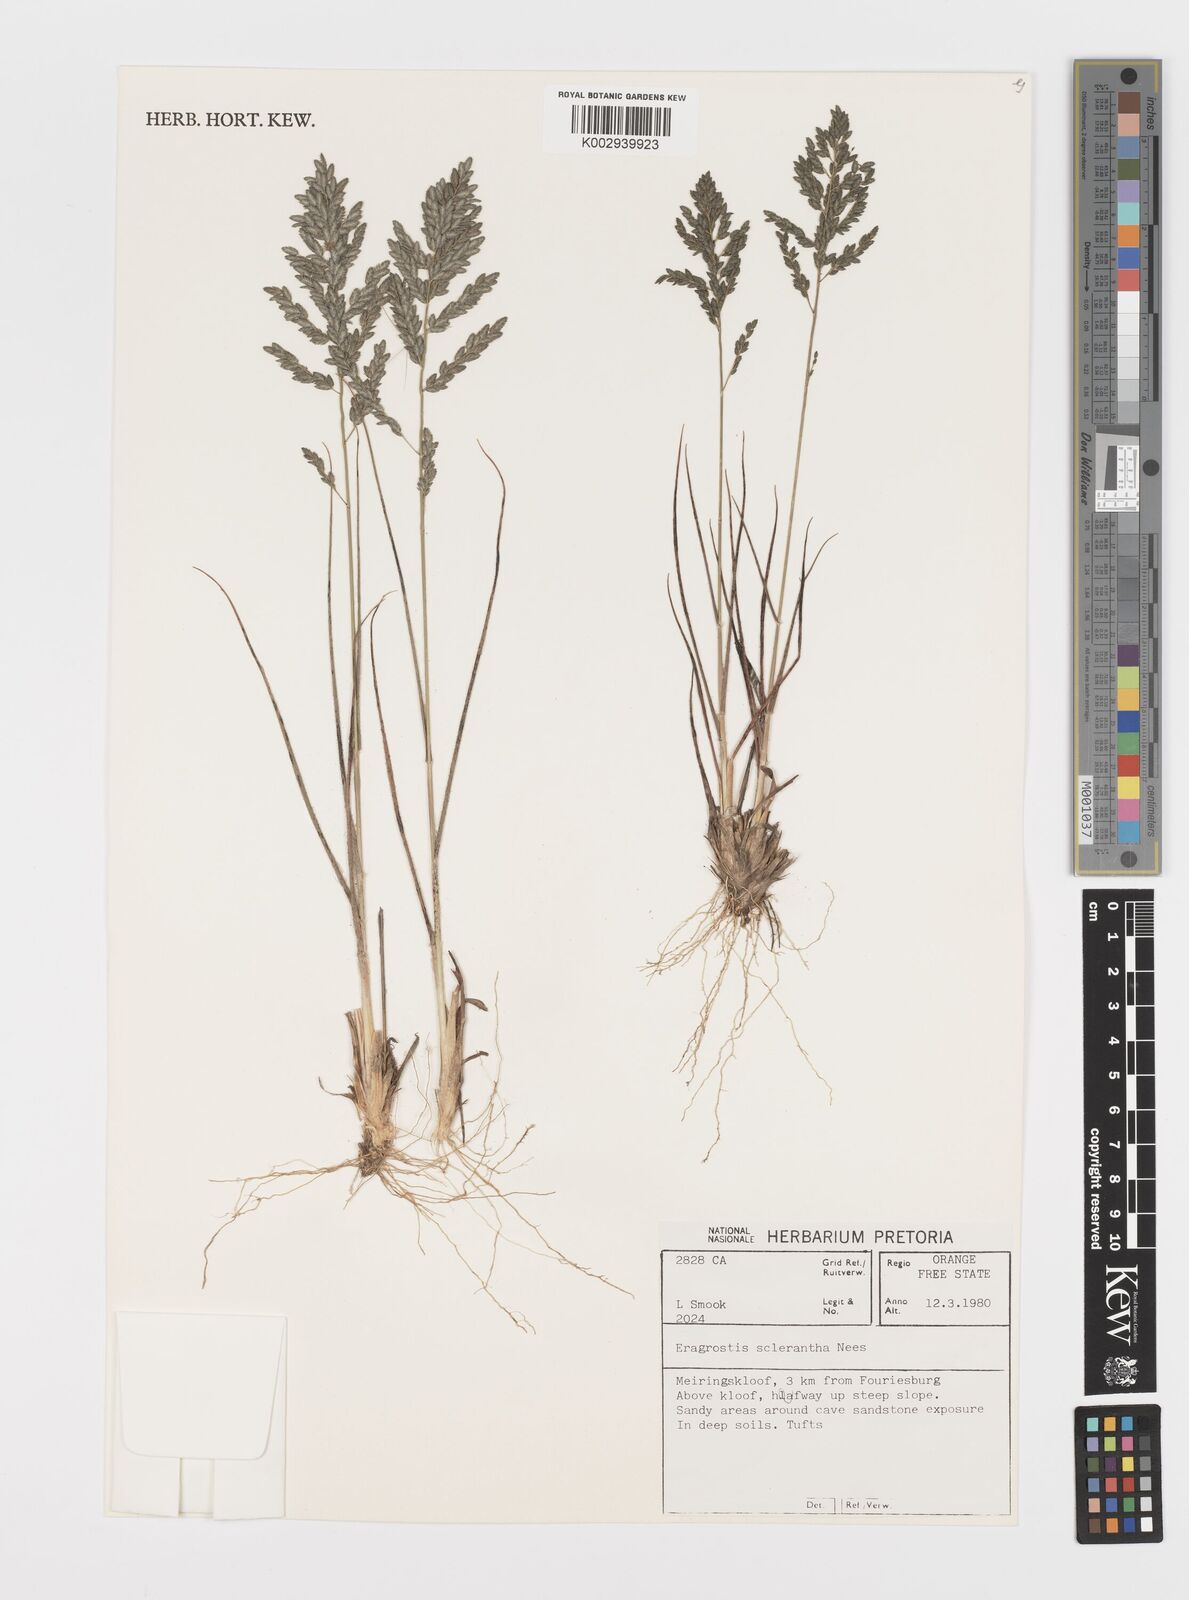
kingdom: Plantae
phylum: Tracheophyta
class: Liliopsida
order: Poales
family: Poaceae
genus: Eragrostis
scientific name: Eragrostis sclerantha
